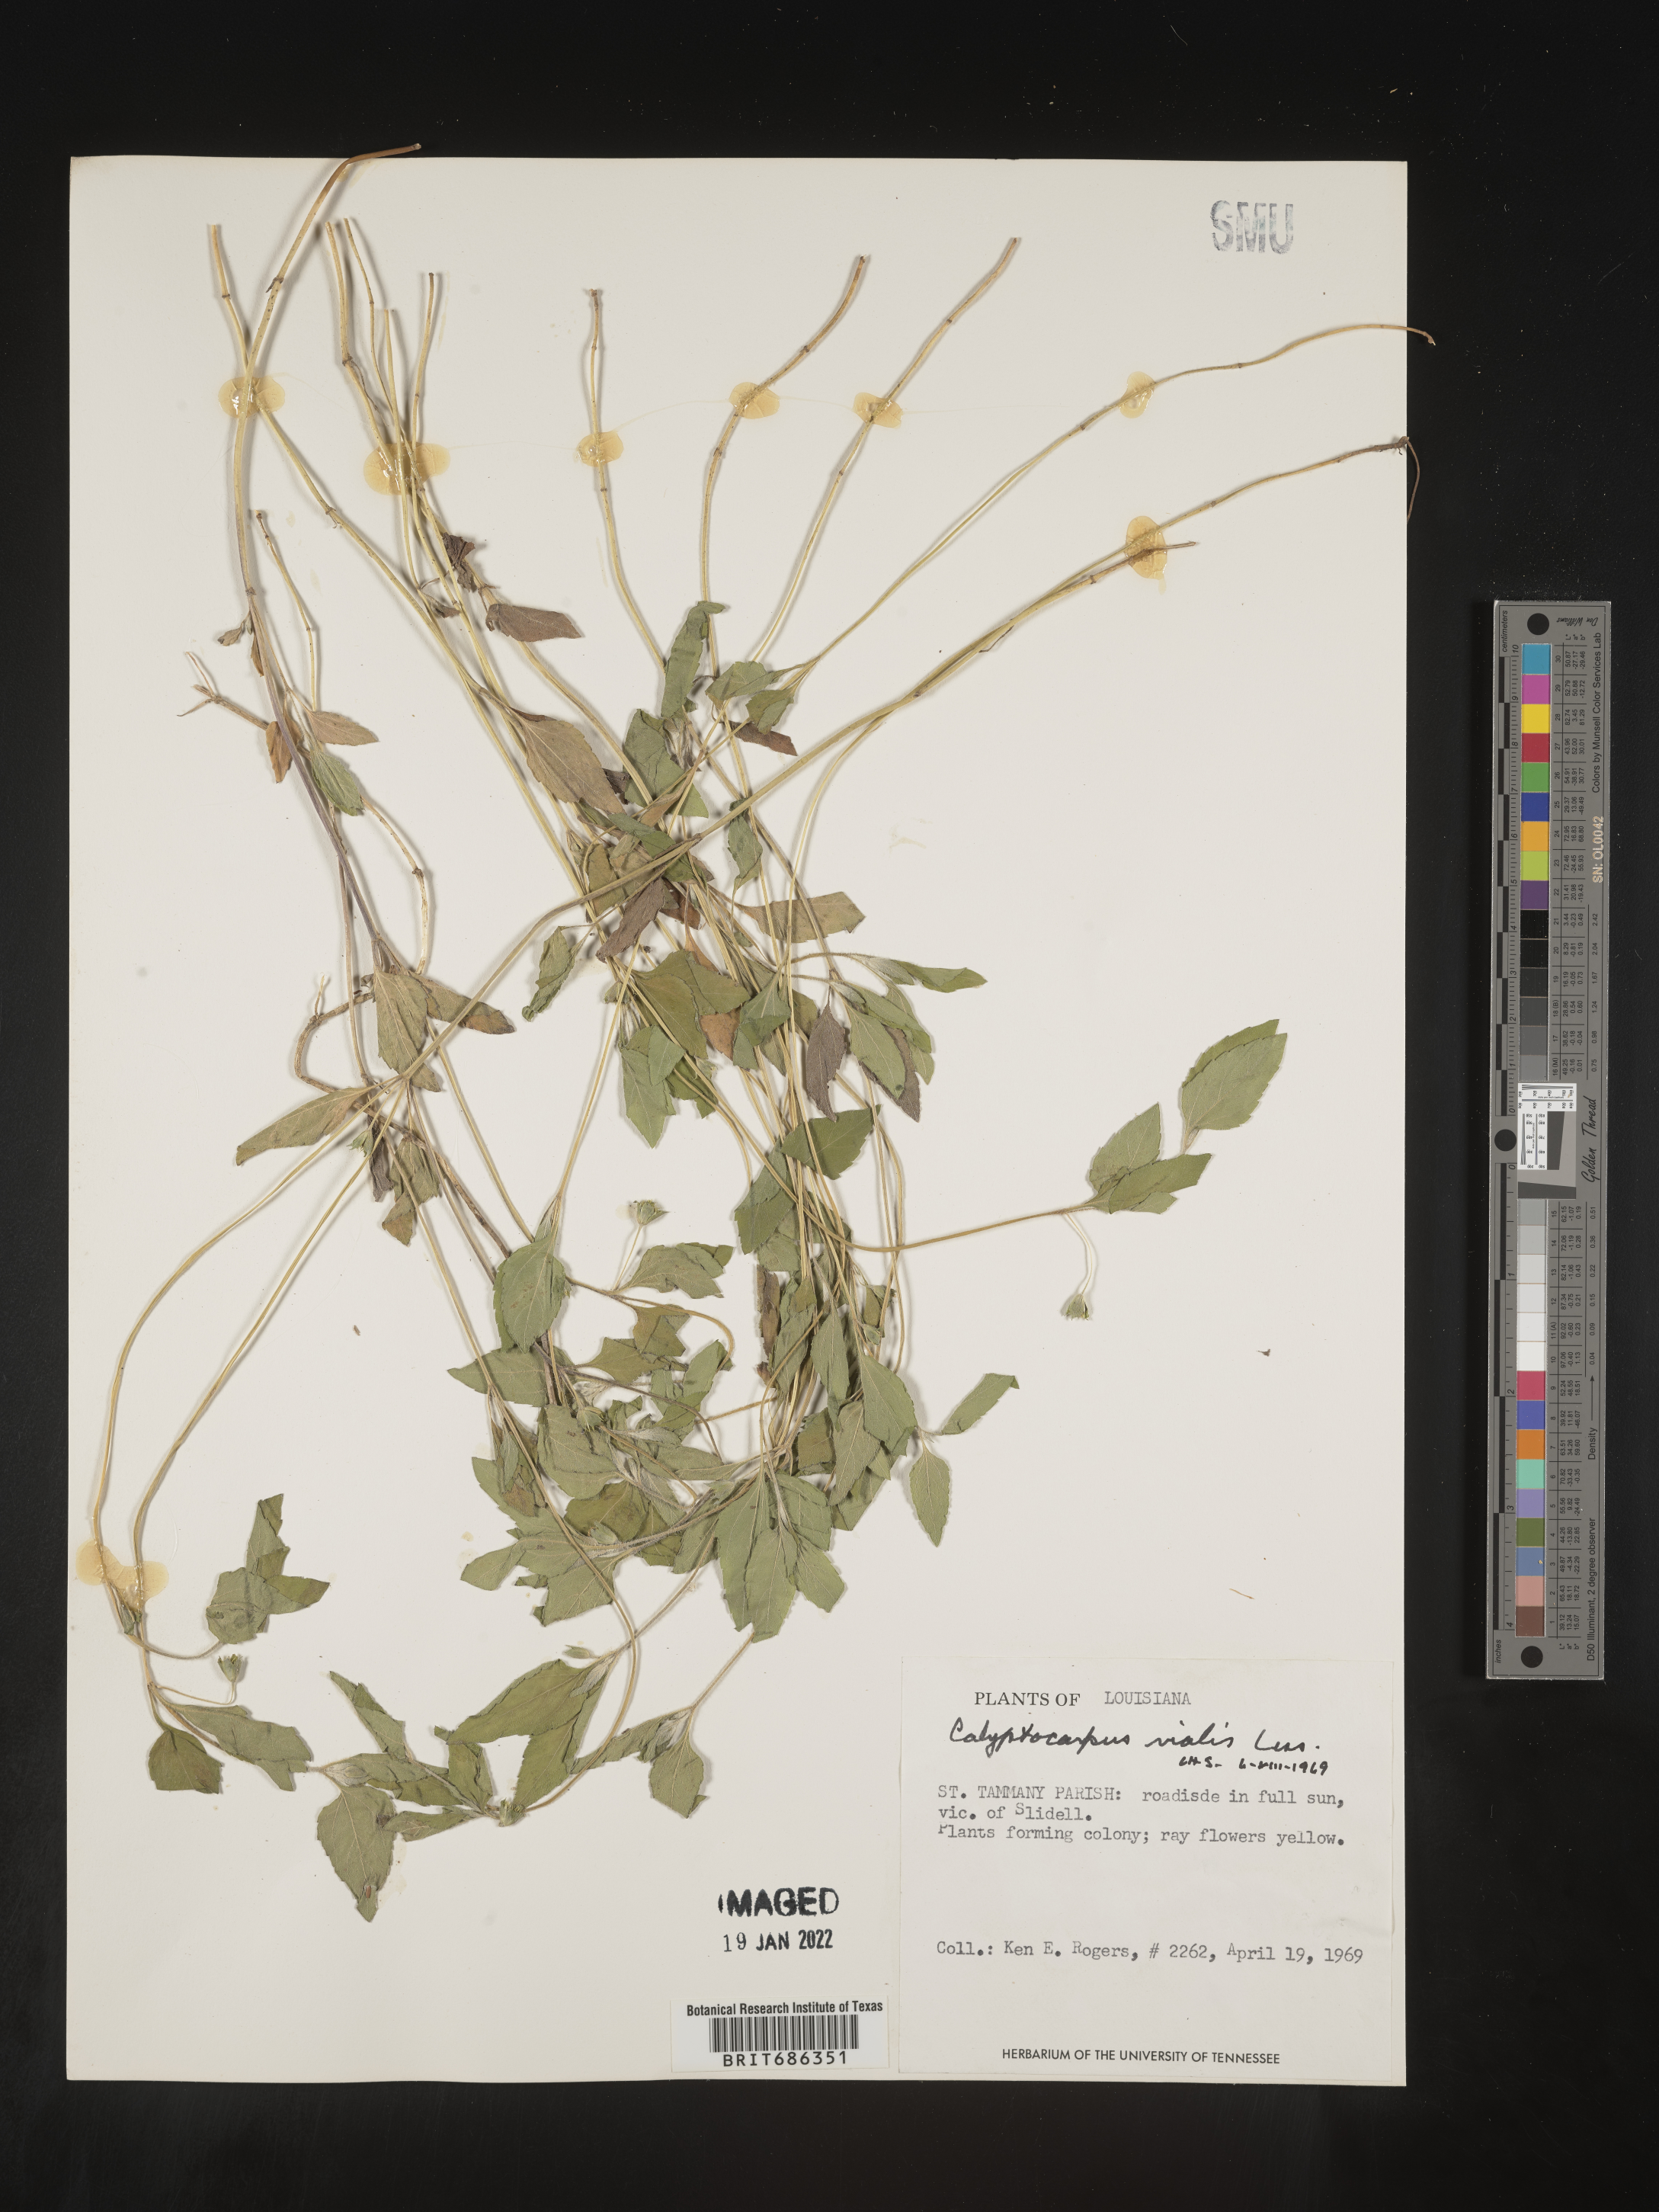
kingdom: Plantae
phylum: Tracheophyta
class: Magnoliopsida
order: Asterales
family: Asteraceae
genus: Calyptocarpus
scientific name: Calyptocarpus
